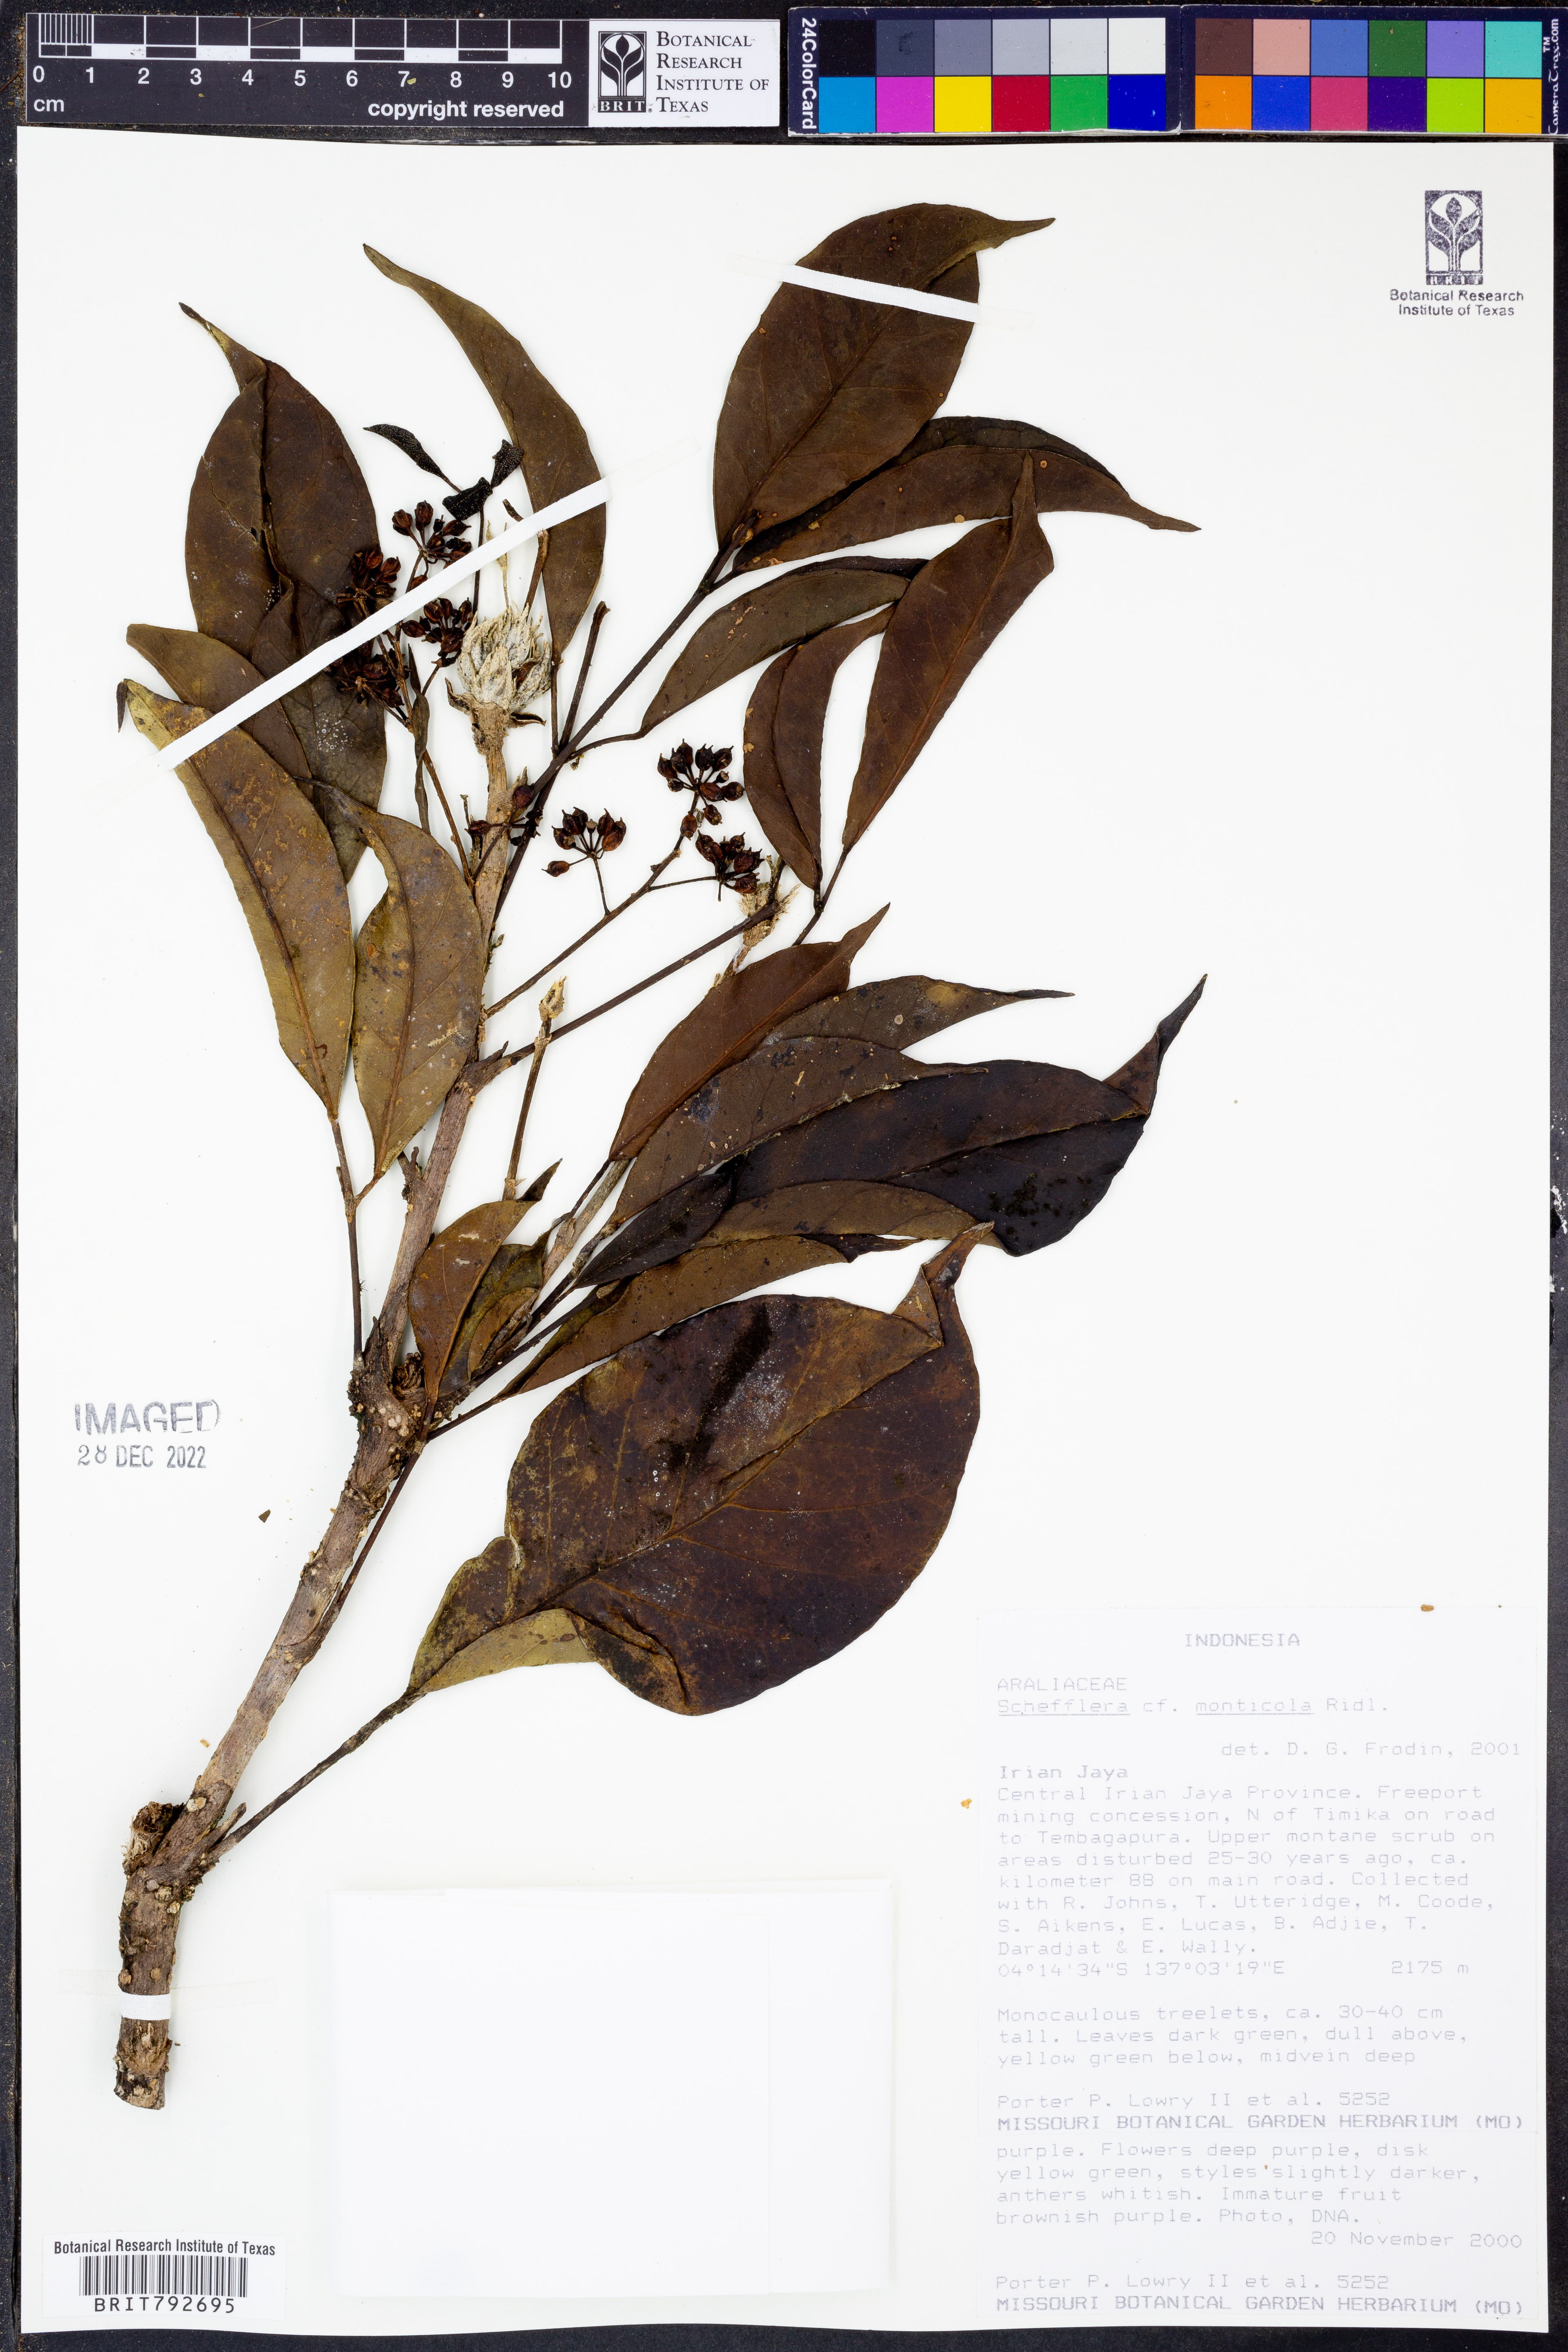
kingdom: Plantae
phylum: Tracheophyta
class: Magnoliopsida
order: Apiales
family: Araliaceae
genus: Heptapleurum
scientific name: Heptapleurum monticola
